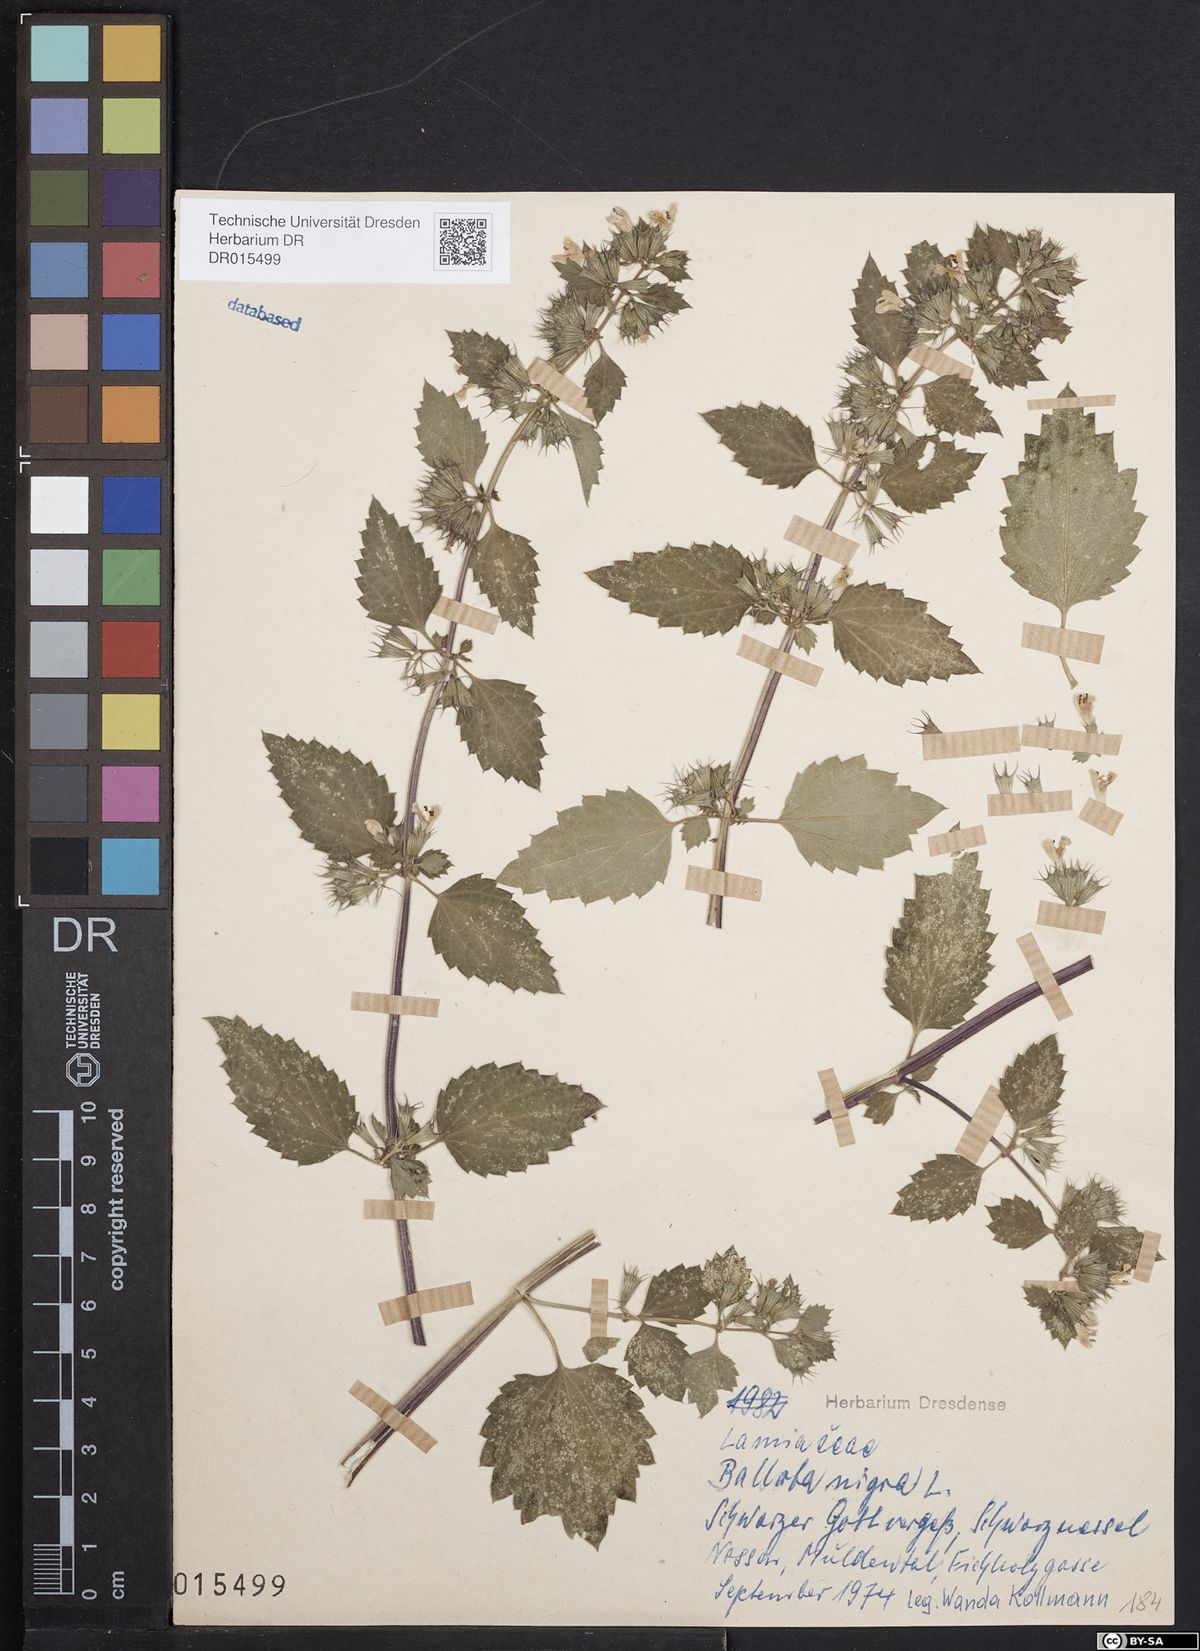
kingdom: Plantae
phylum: Tracheophyta
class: Magnoliopsida
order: Lamiales
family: Lamiaceae
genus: Ballota
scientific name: Ballota nigra
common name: Black horehound
